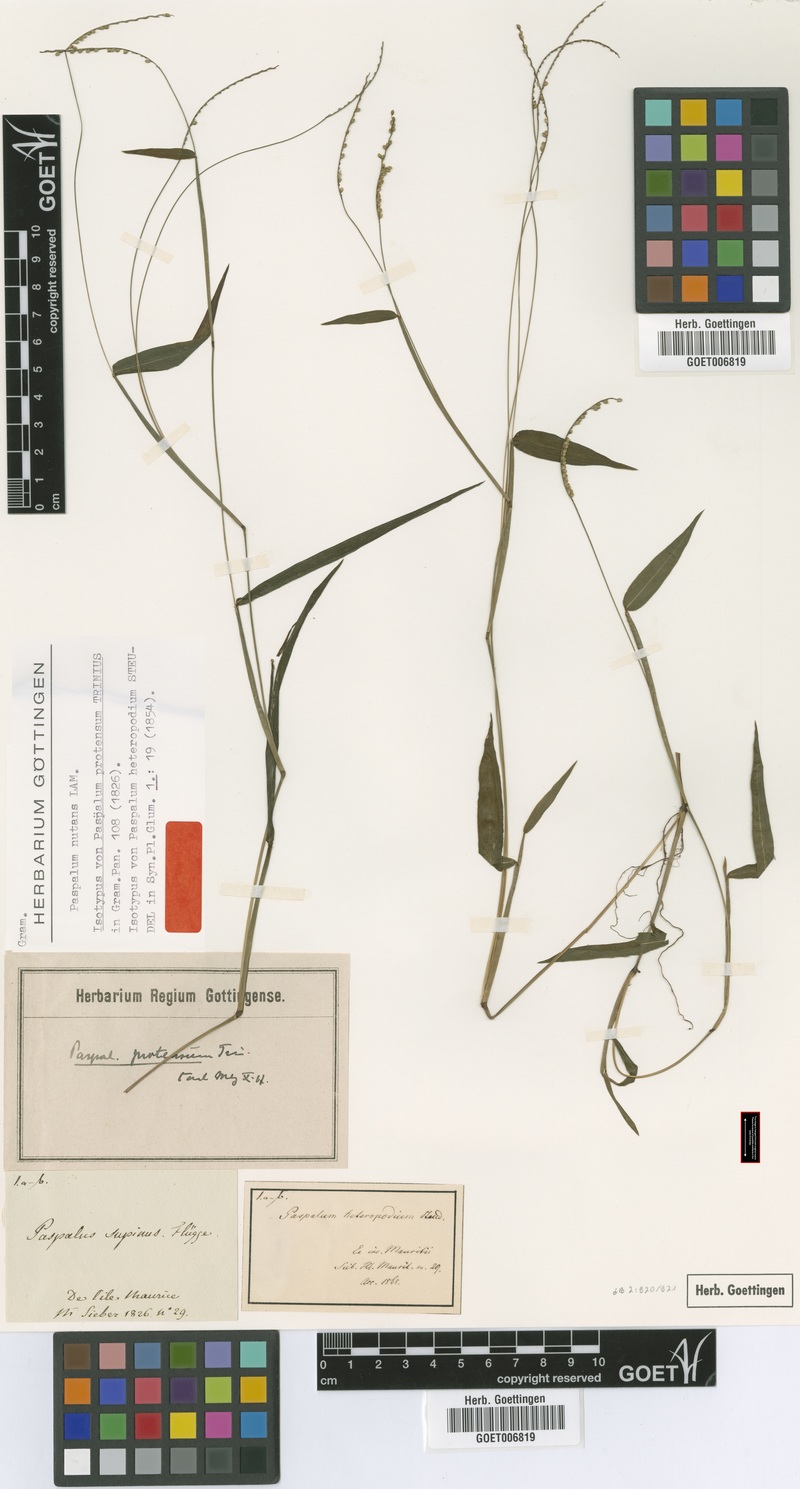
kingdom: Plantae
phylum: Tracheophyta
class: Liliopsida
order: Poales
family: Poaceae
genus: Paspalum
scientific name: Paspalum nutans
